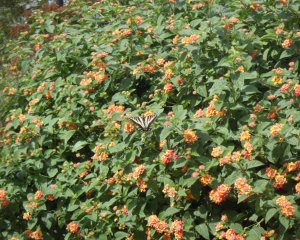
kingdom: Animalia
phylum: Arthropoda
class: Insecta
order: Lepidoptera
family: Papilionidae
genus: Pterourus
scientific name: Pterourus rutulus
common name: Western Tiger Swallowtail
